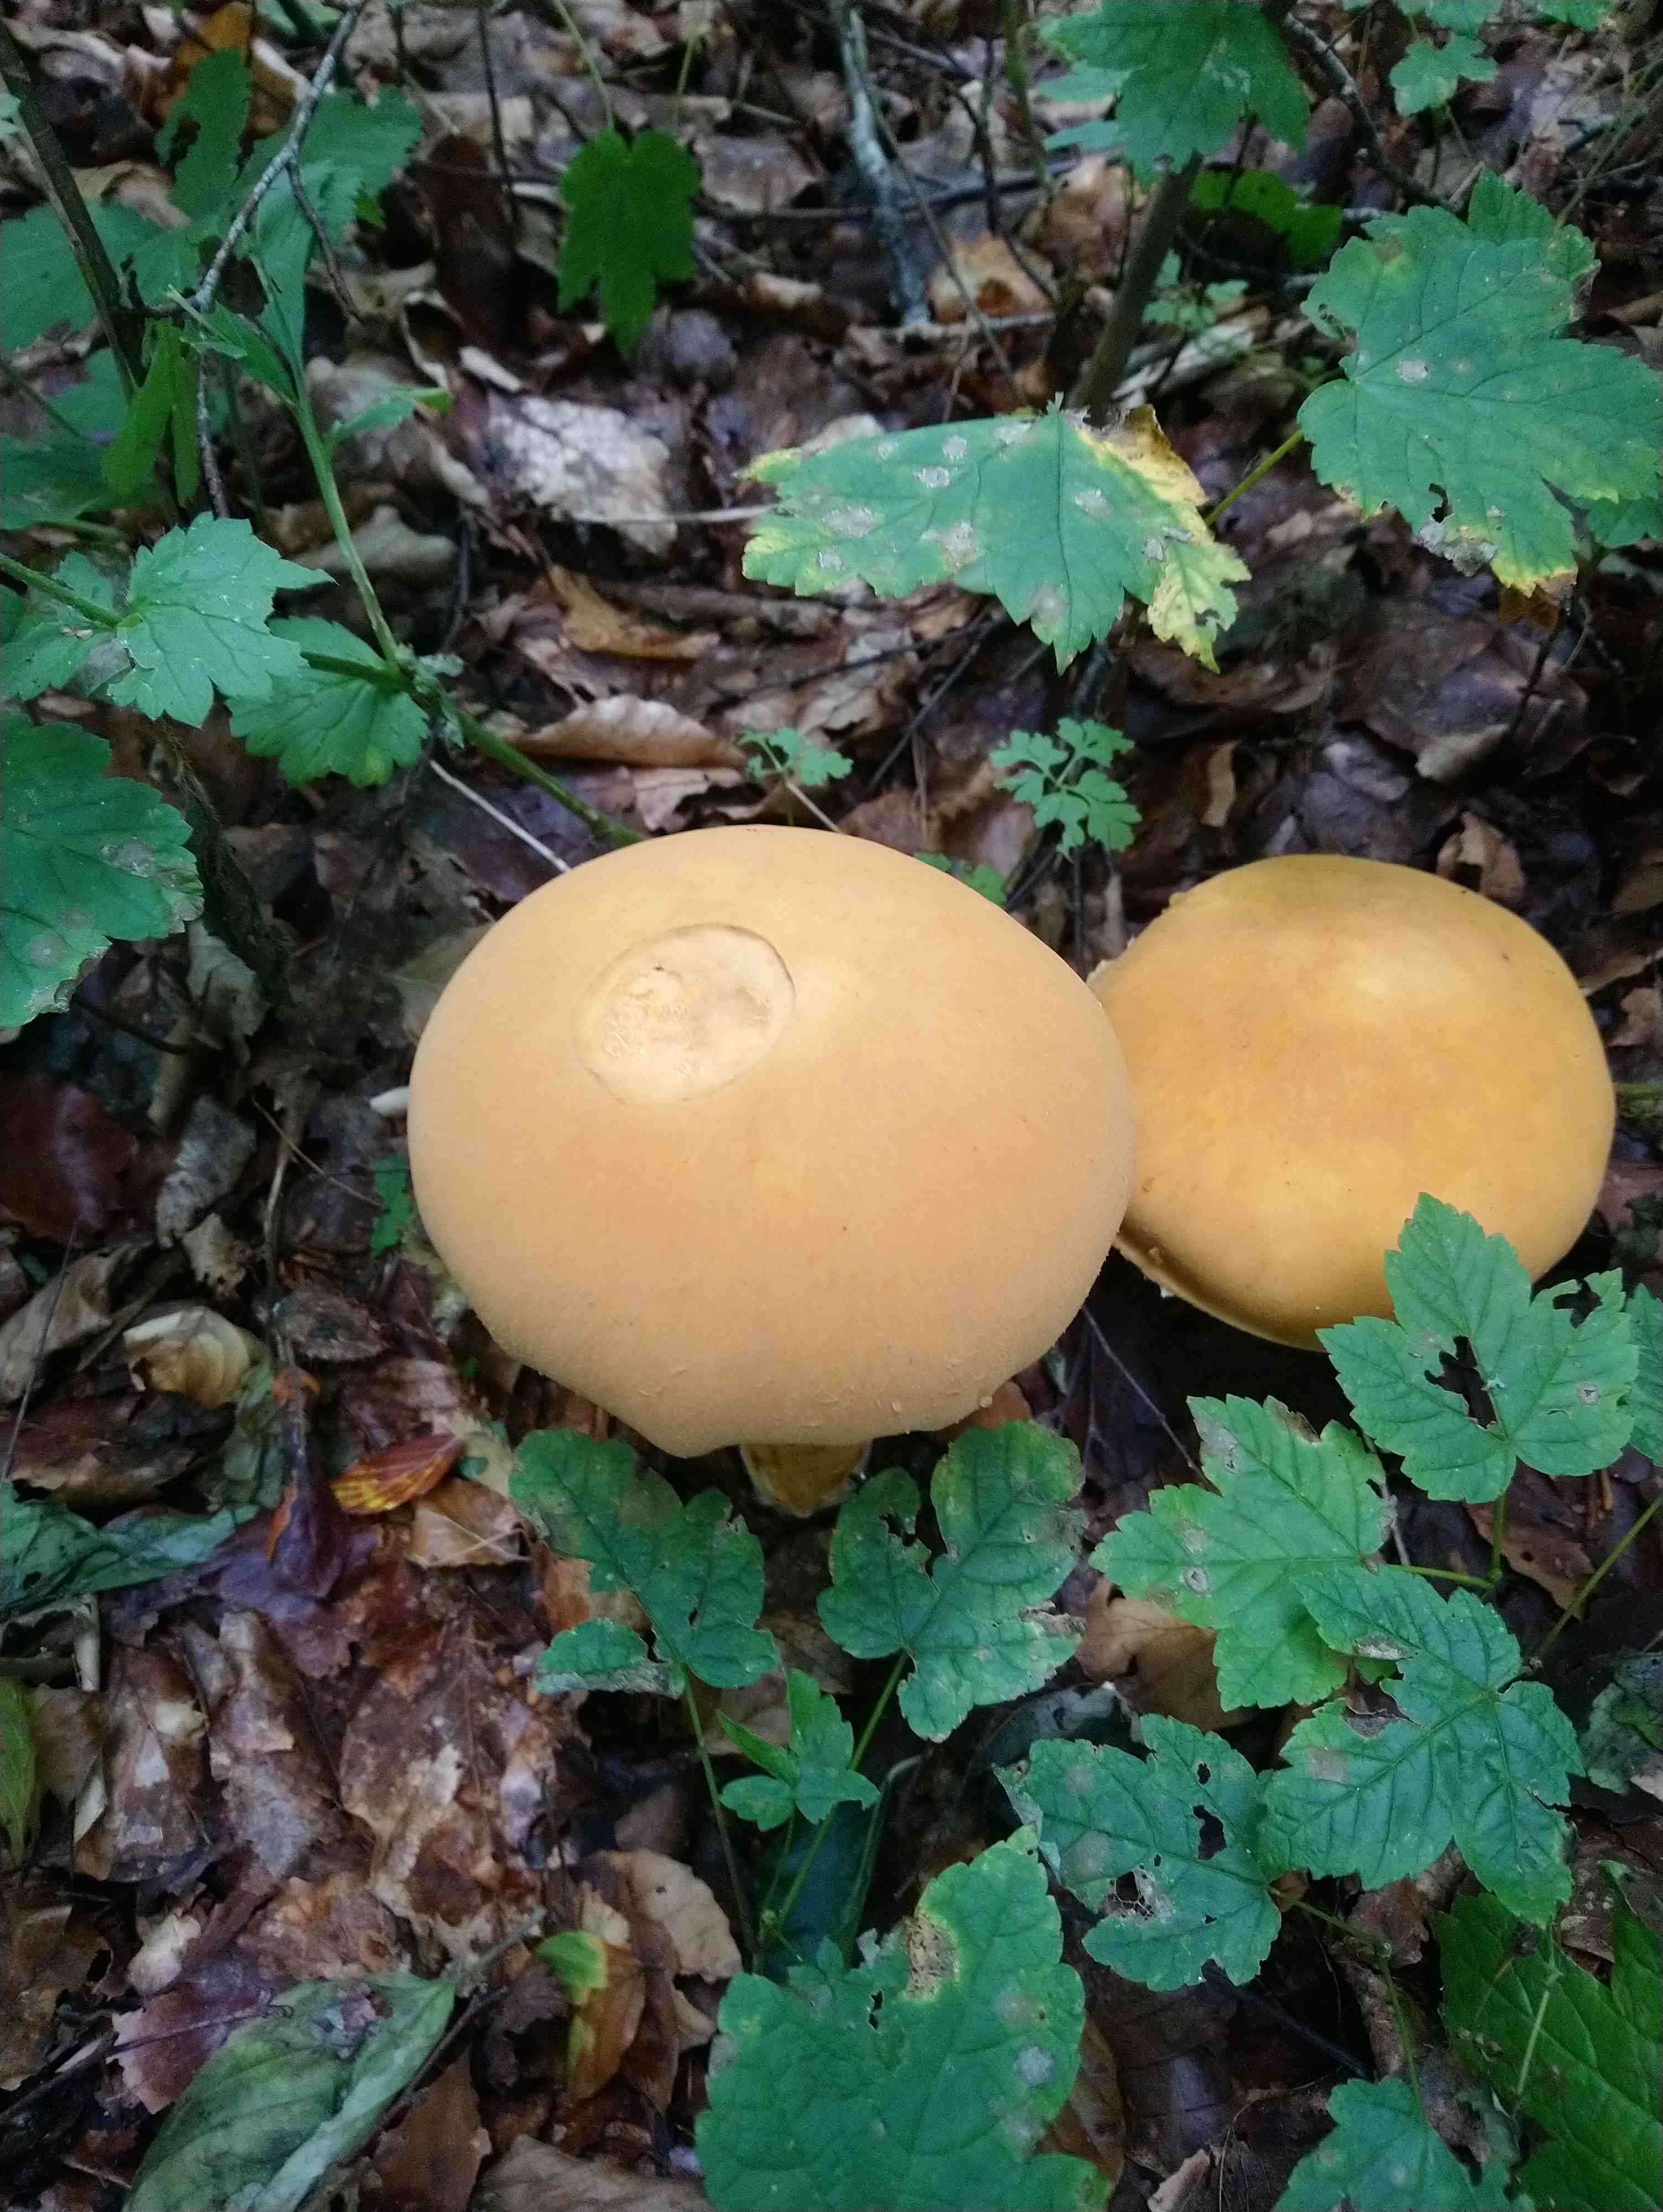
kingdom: Fungi
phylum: Basidiomycota
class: Agaricomycetes
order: Agaricales
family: Tricholomataceae
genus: Phaeolepiota
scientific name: Phaeolepiota aurea
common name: gyldenhat
